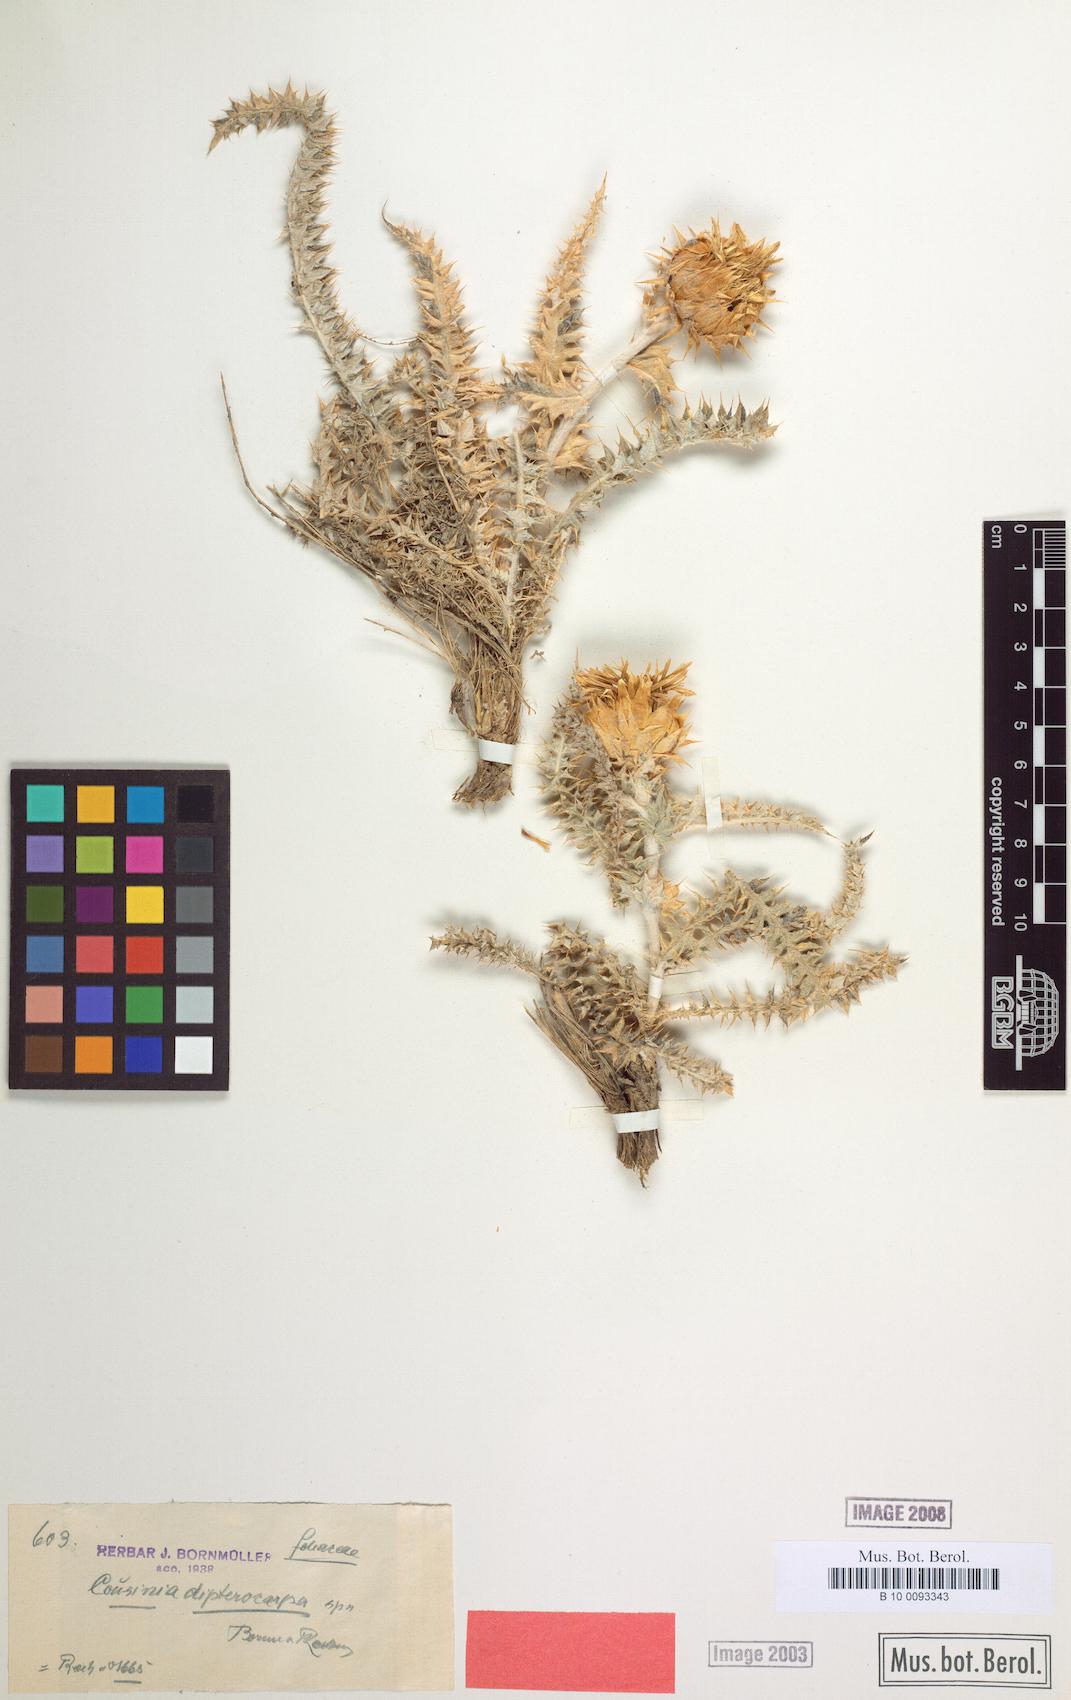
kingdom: Plantae
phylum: Tracheophyta
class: Magnoliopsida
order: Asterales
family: Asteraceae
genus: Cousinia
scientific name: Cousinia dipterocarpa
